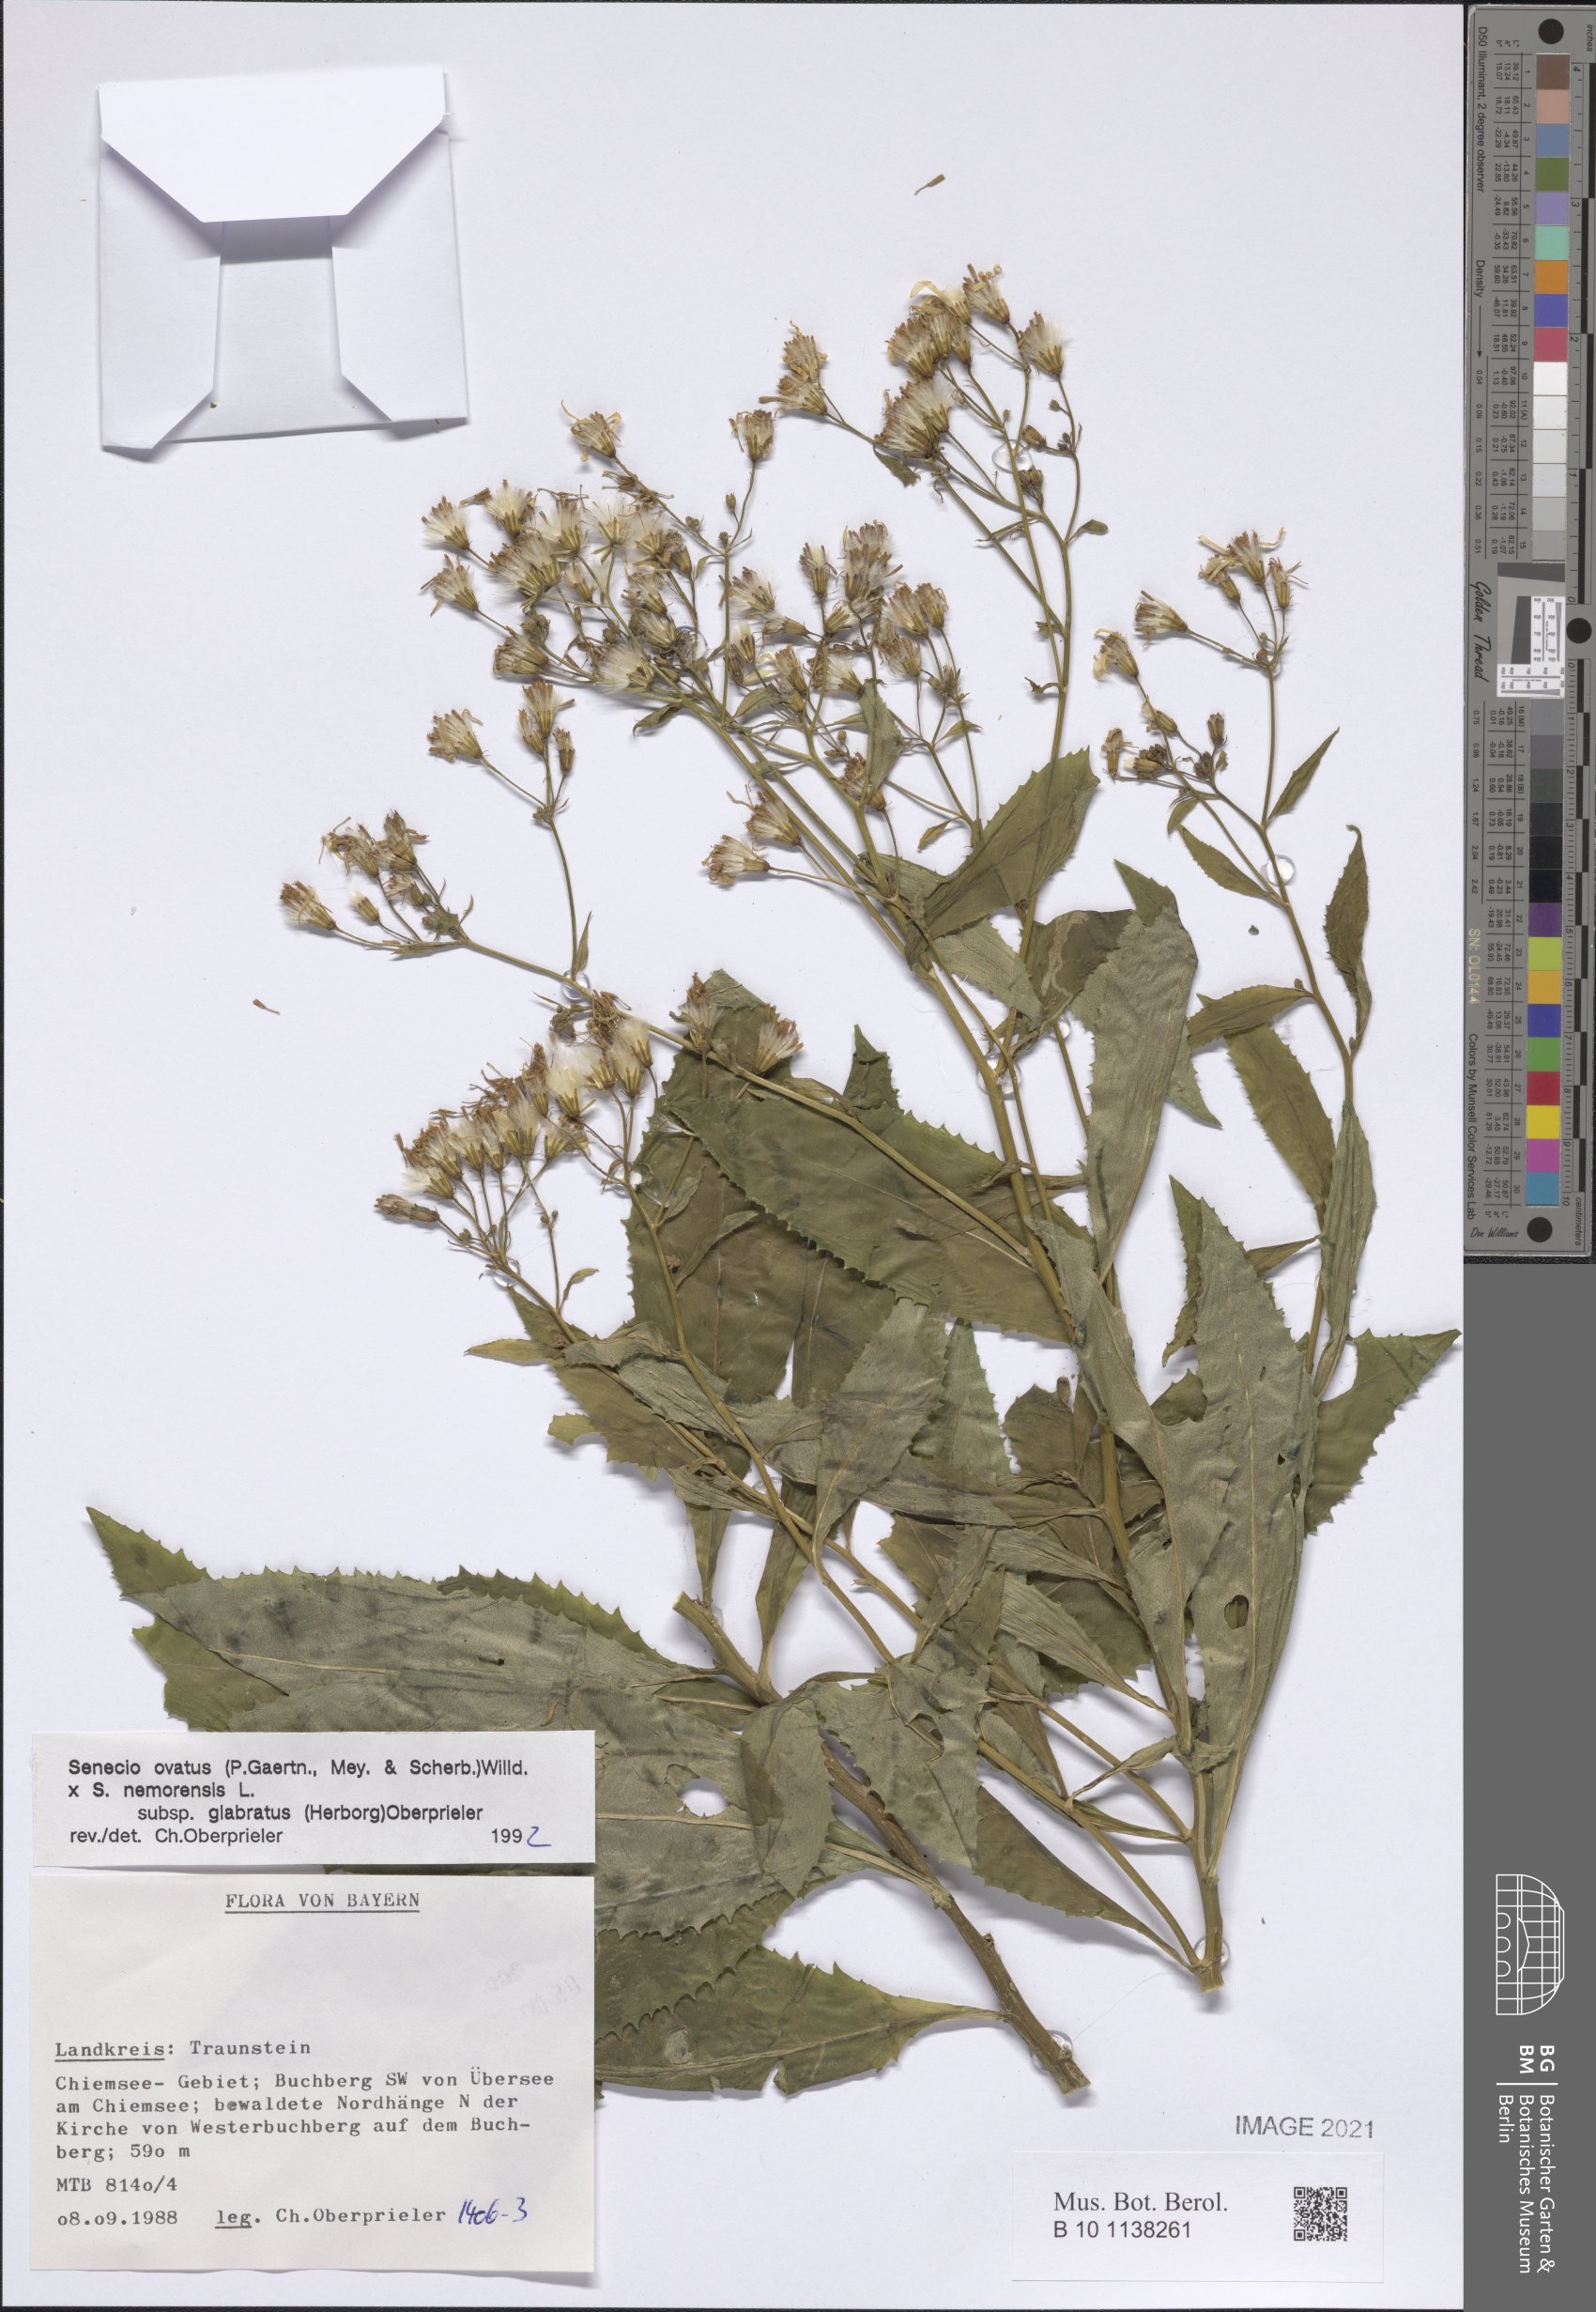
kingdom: Plantae
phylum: Tracheophyta
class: Magnoliopsida
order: Asterales
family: Asteraceae
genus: Senecio
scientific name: Senecio ovatus
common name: Wood ragwort
